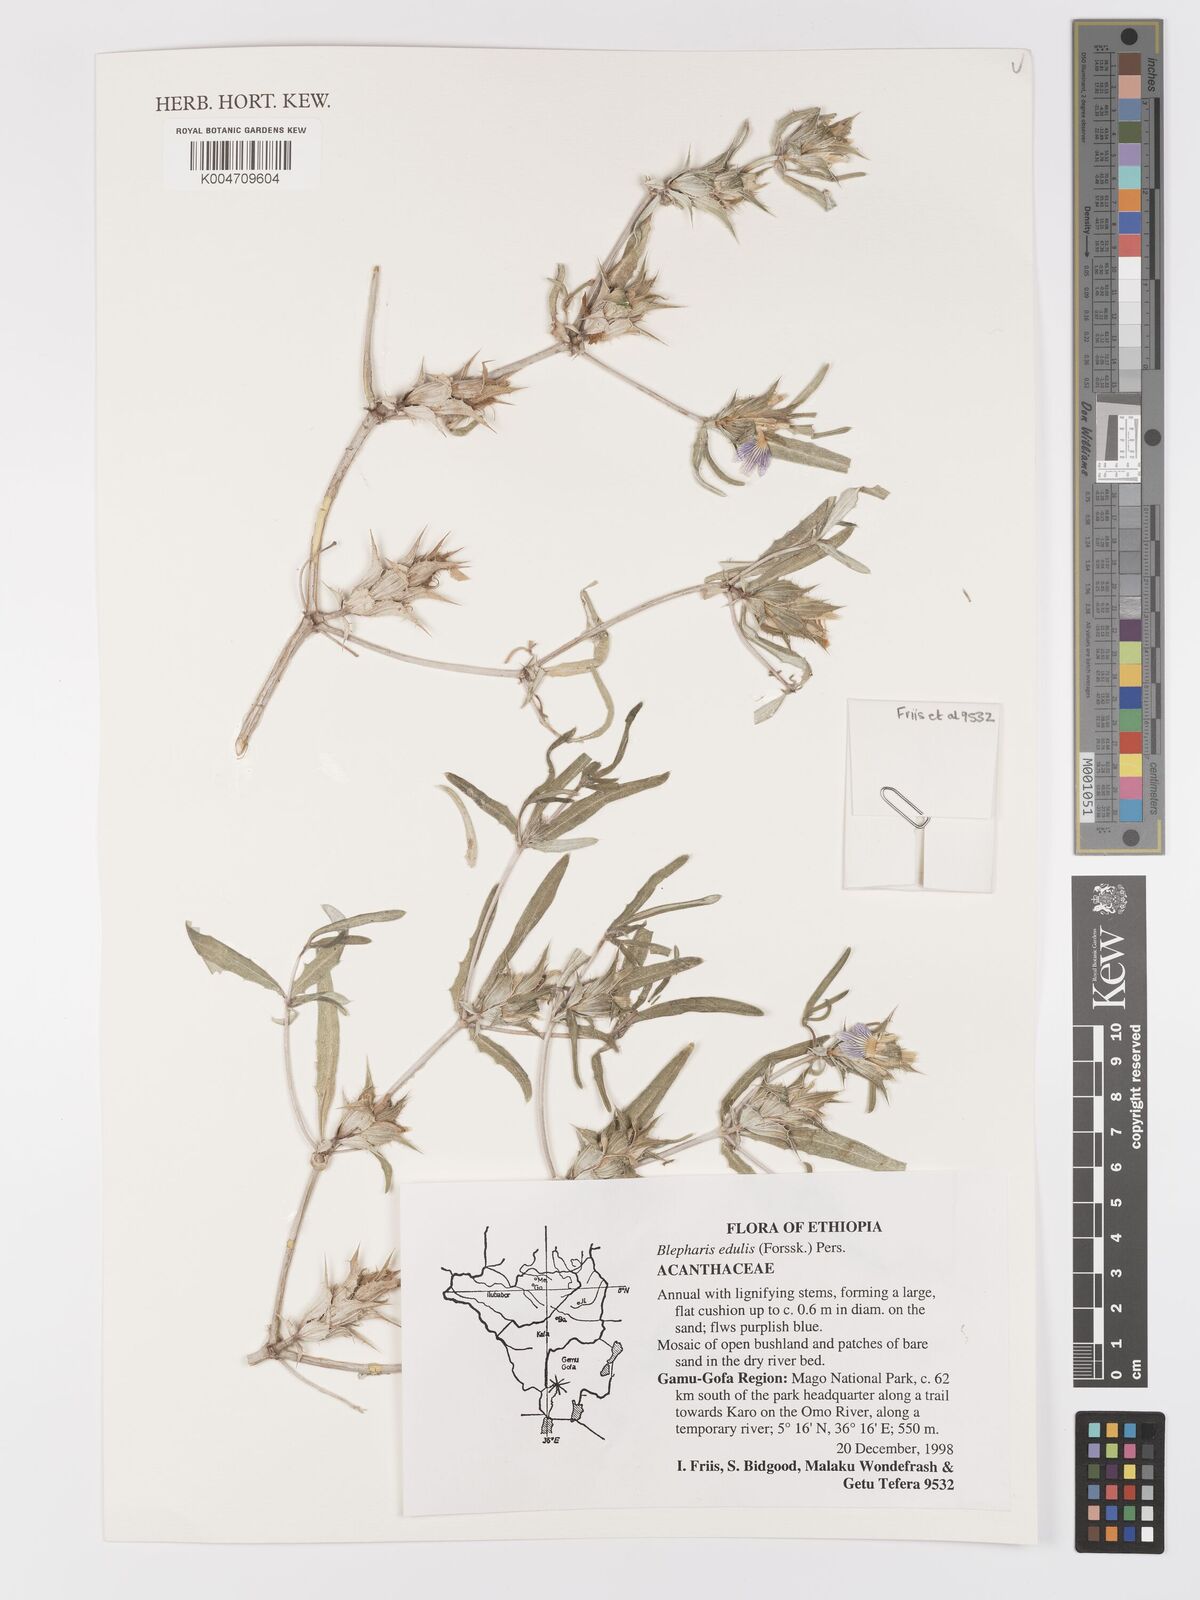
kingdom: Plantae
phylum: Tracheophyta
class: Magnoliopsida
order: Lamiales
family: Acanthaceae
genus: Blepharis
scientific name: Blepharis edulis
